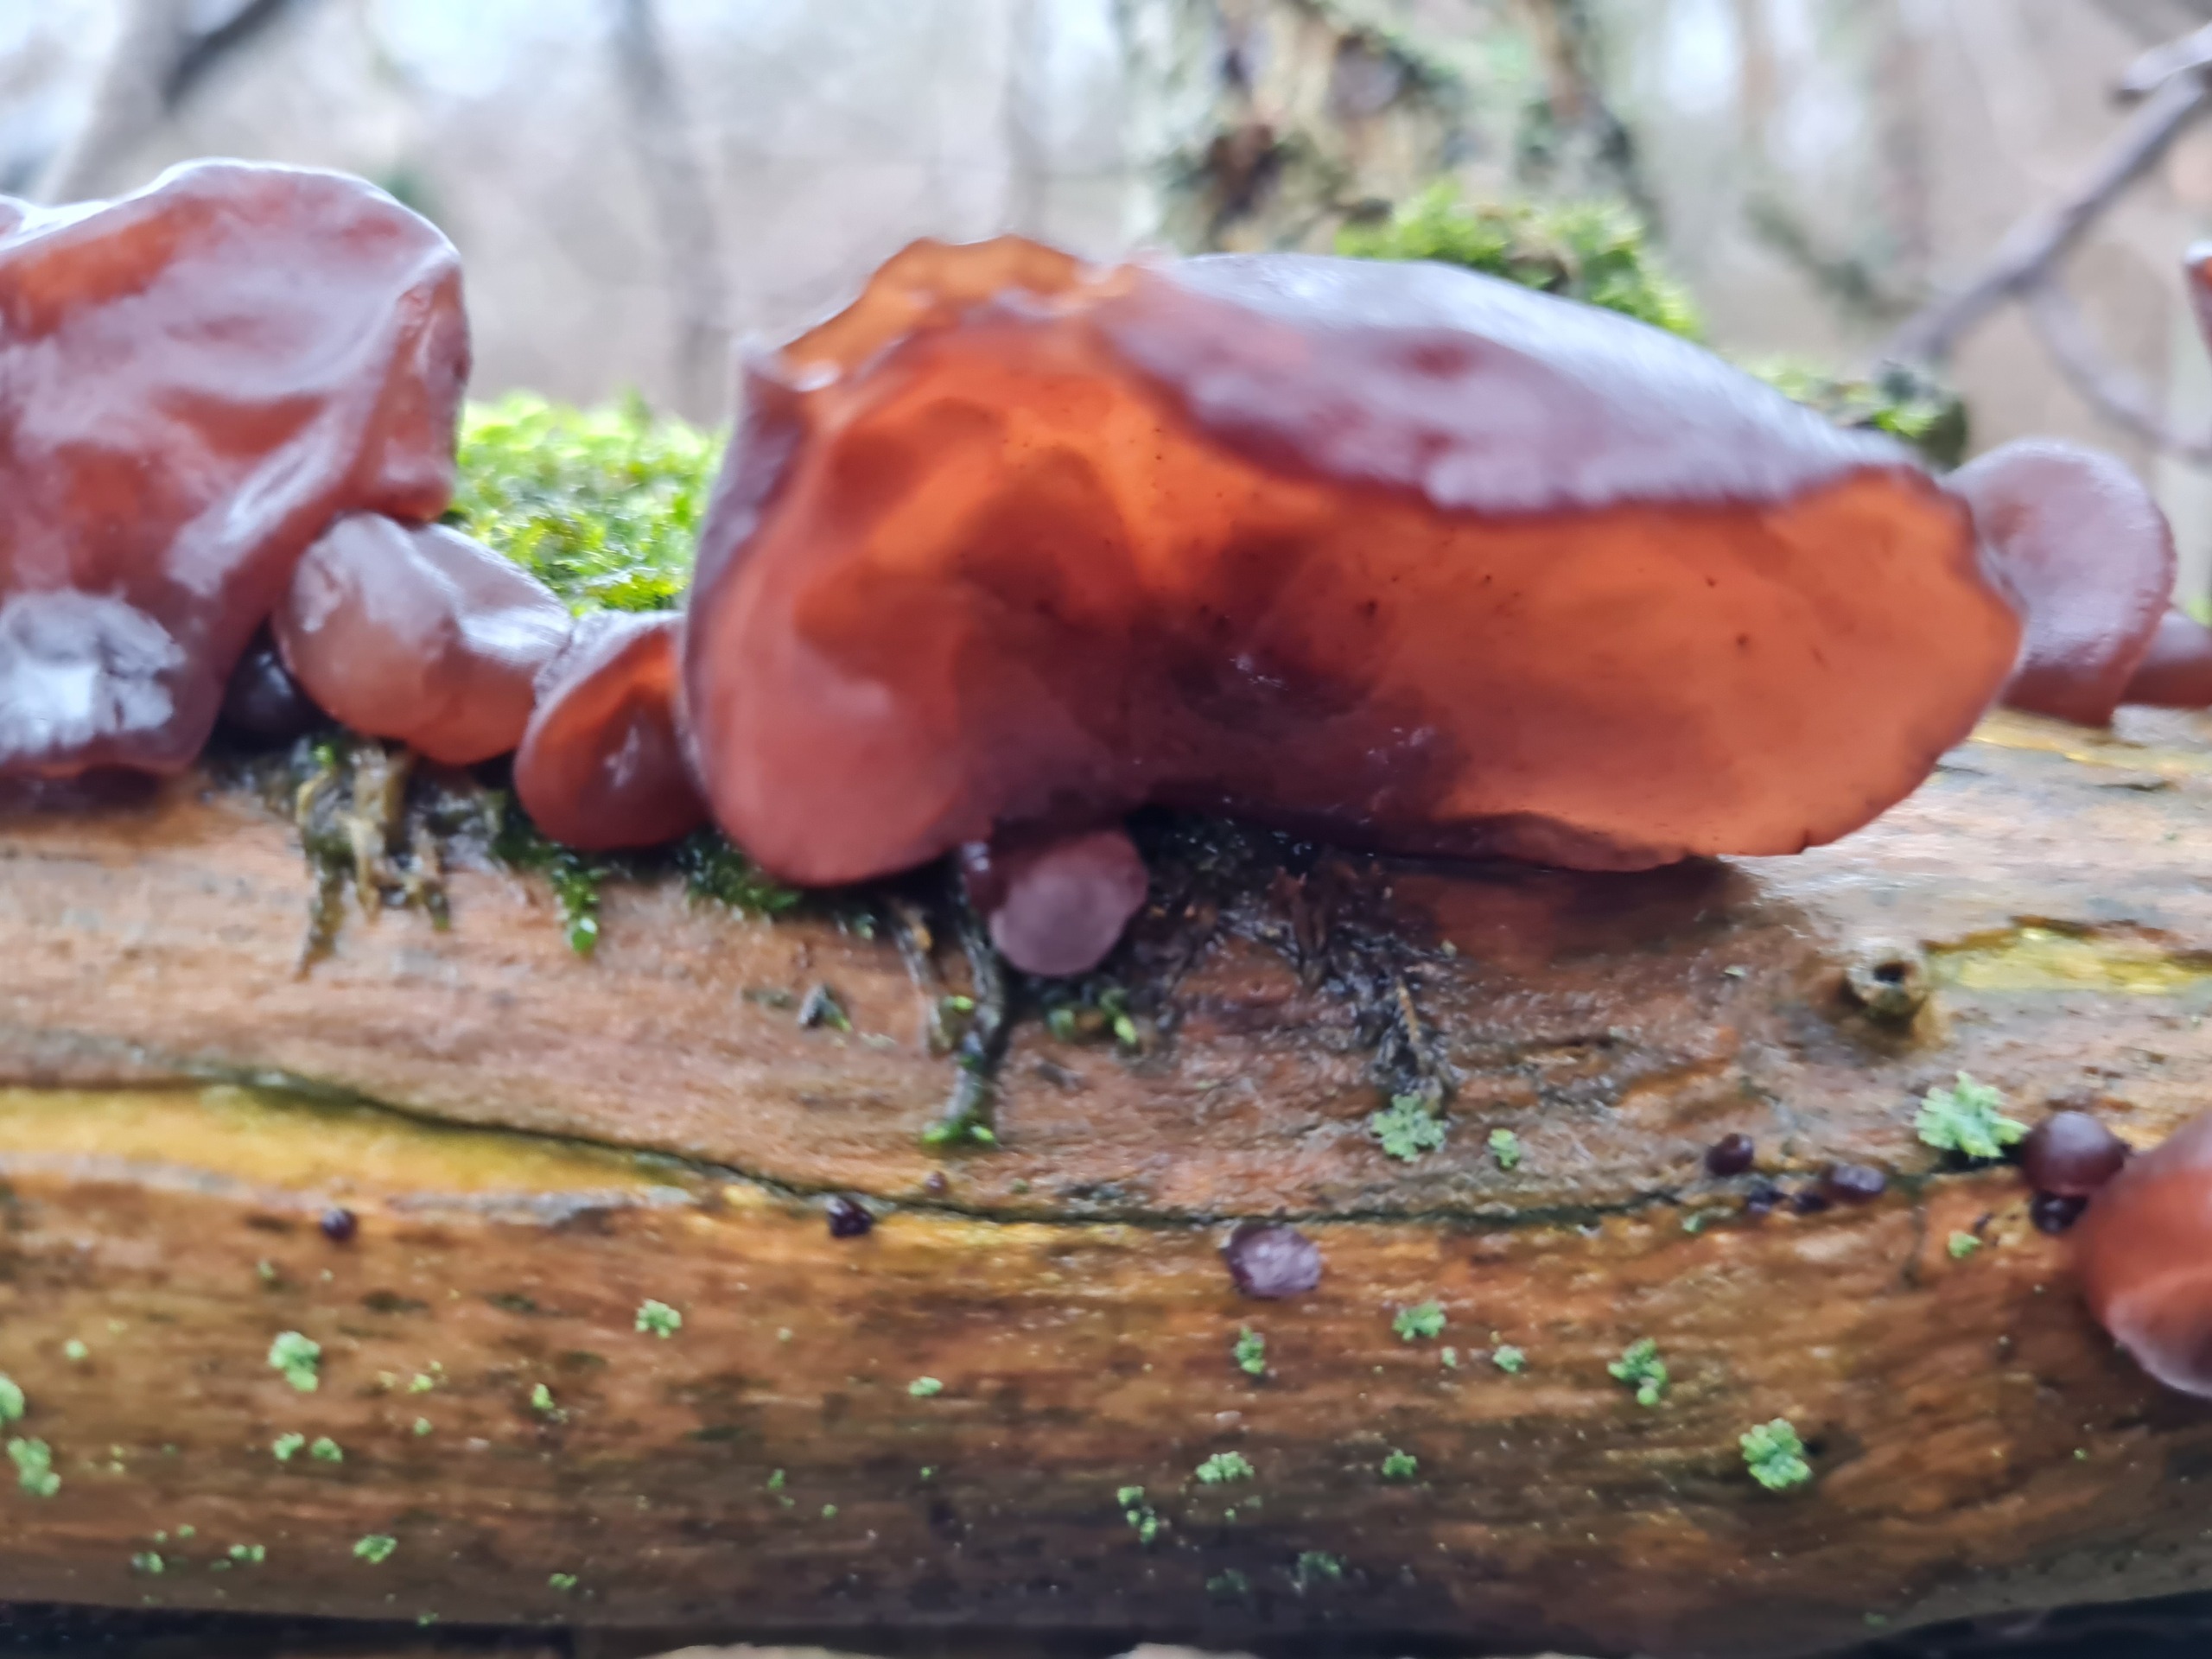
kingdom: Fungi
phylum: Basidiomycota
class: Agaricomycetes
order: Auriculariales
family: Auriculariaceae
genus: Auricularia
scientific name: Auricularia auricula-judae
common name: Almindelig judasøre
